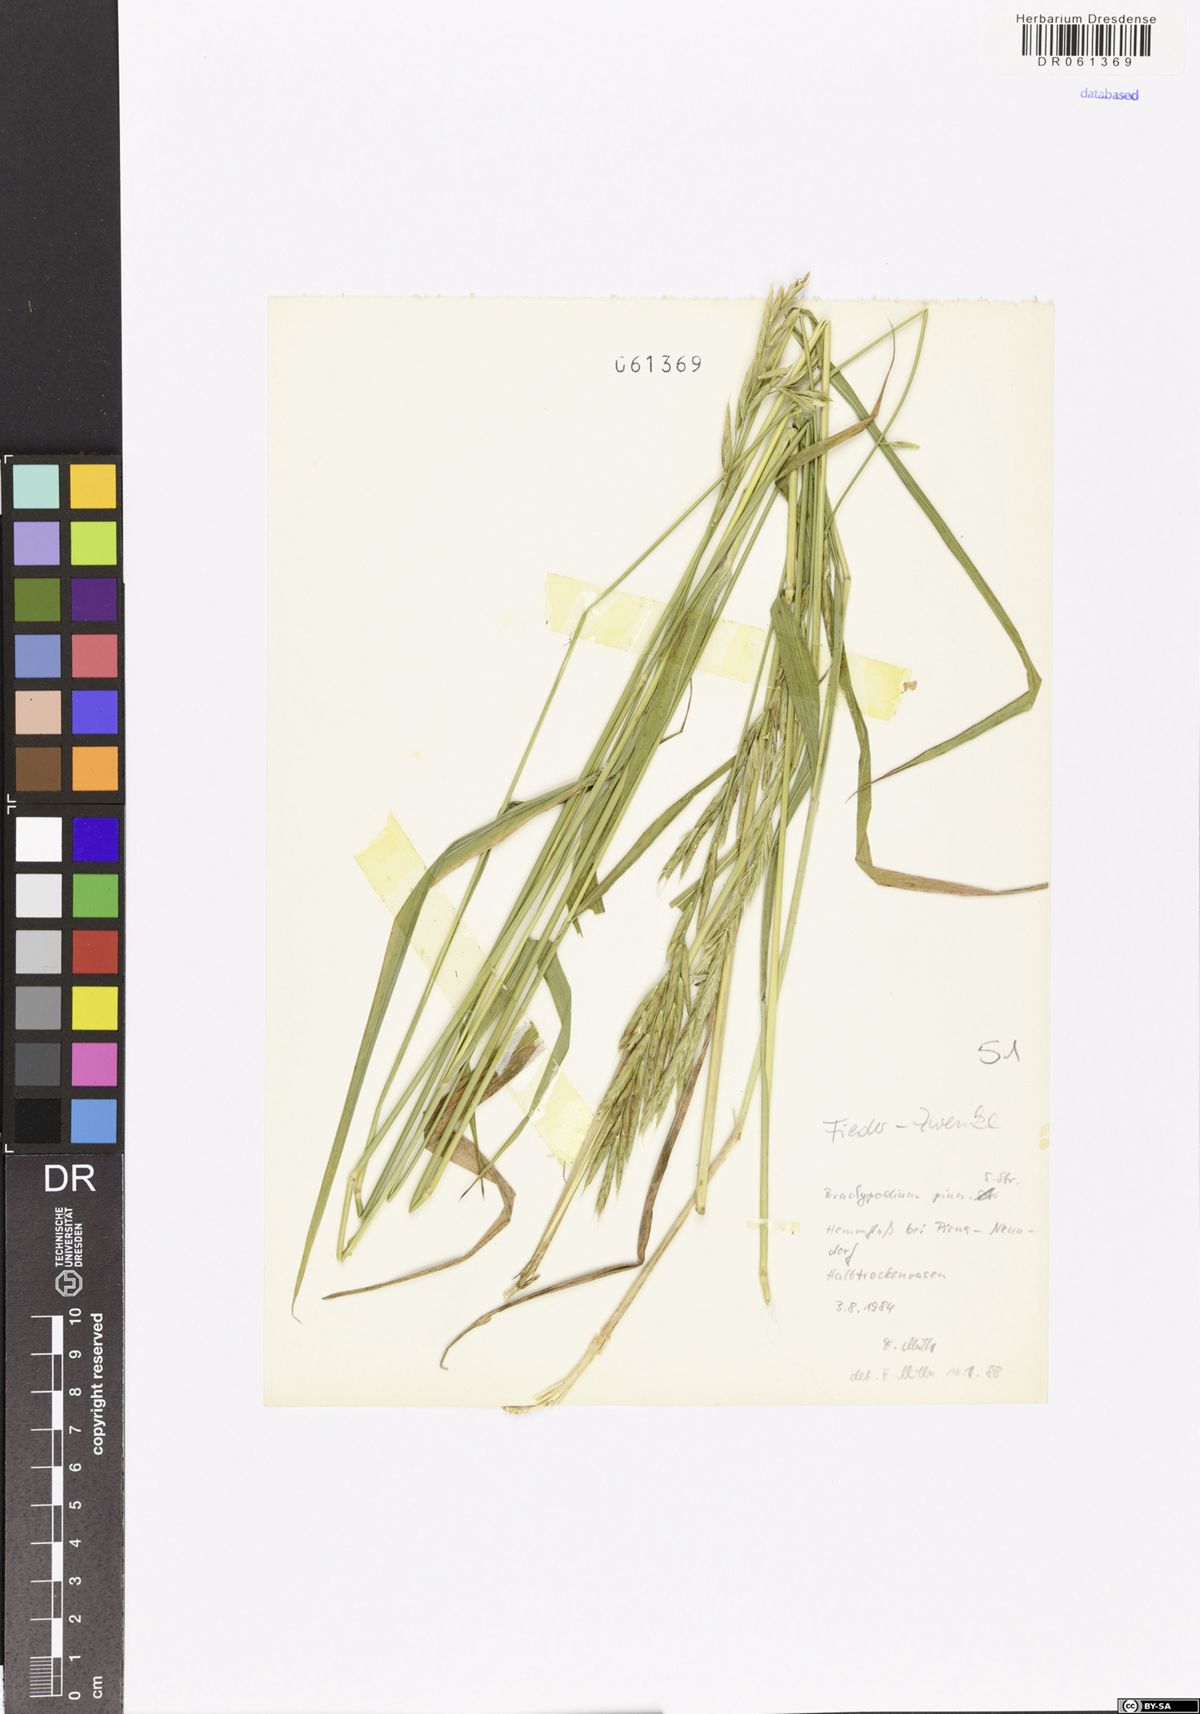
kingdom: Plantae
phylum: Tracheophyta
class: Liliopsida
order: Poales
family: Poaceae
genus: Brachypodium
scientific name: Brachypodium pinnatum
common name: Tor grass
